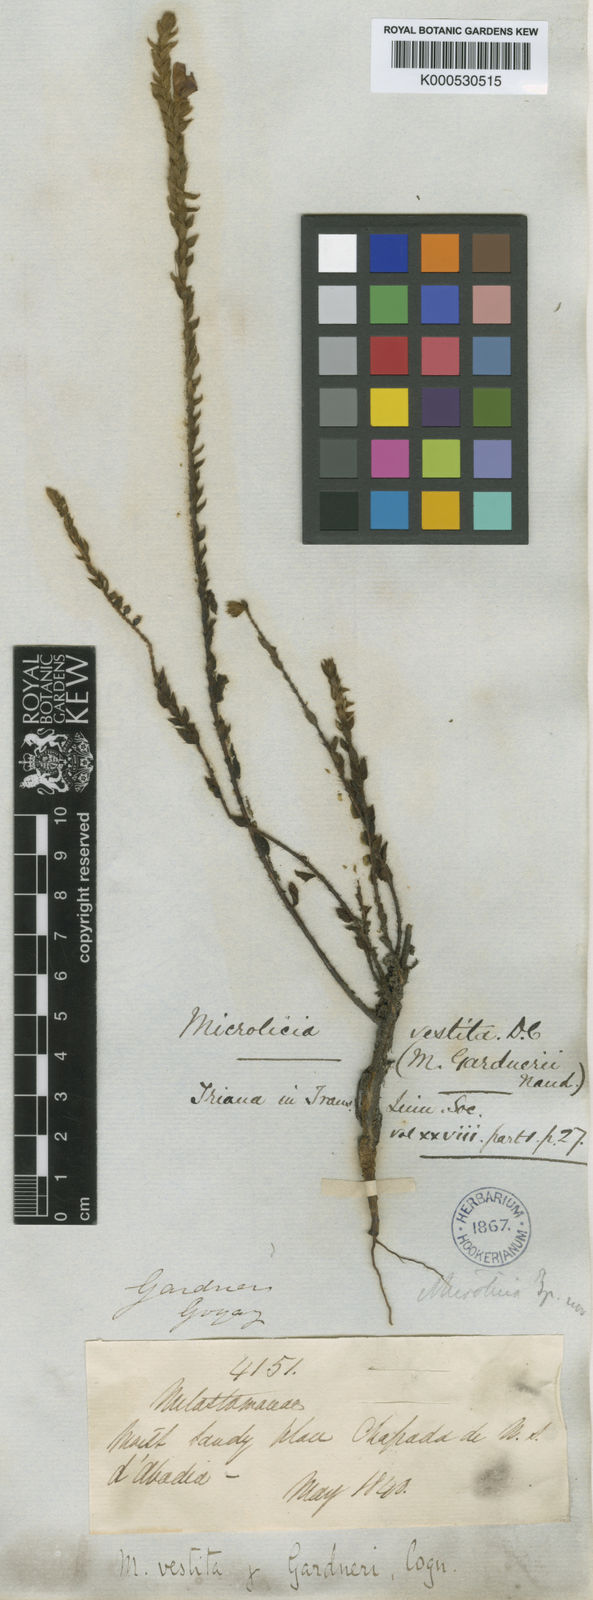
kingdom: Plantae
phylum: Tracheophyta
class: Magnoliopsida
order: Myrtales
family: Melastomataceae
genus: Microlicia
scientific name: Microlicia vestita
